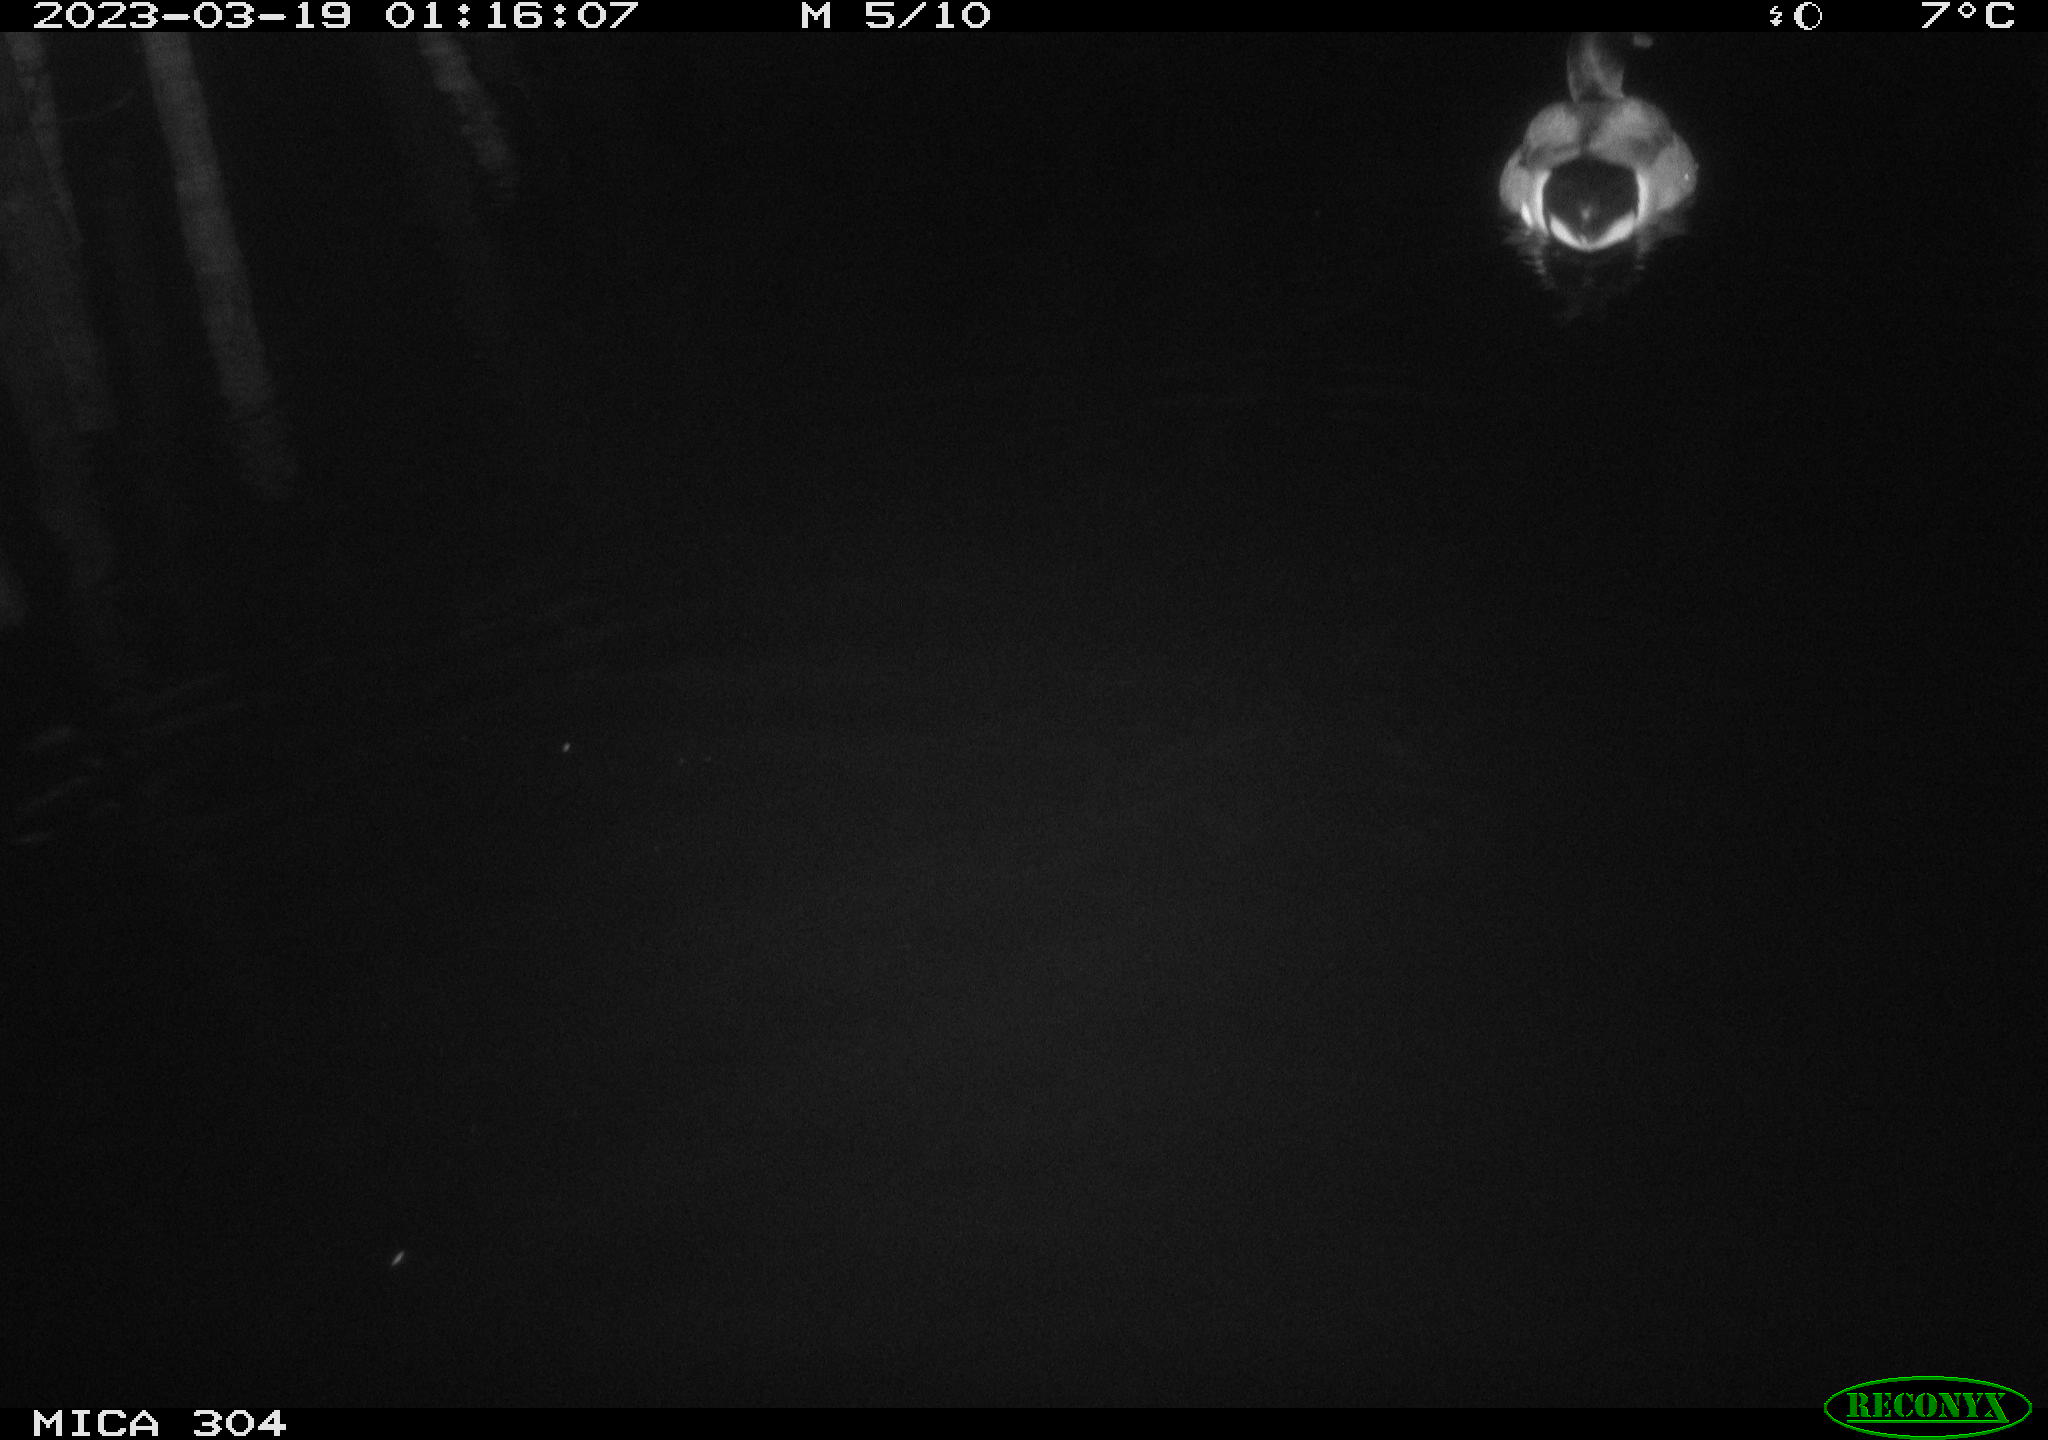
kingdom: Animalia
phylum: Chordata
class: Aves
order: Anseriformes
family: Anatidae
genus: Anas
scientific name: Anas
